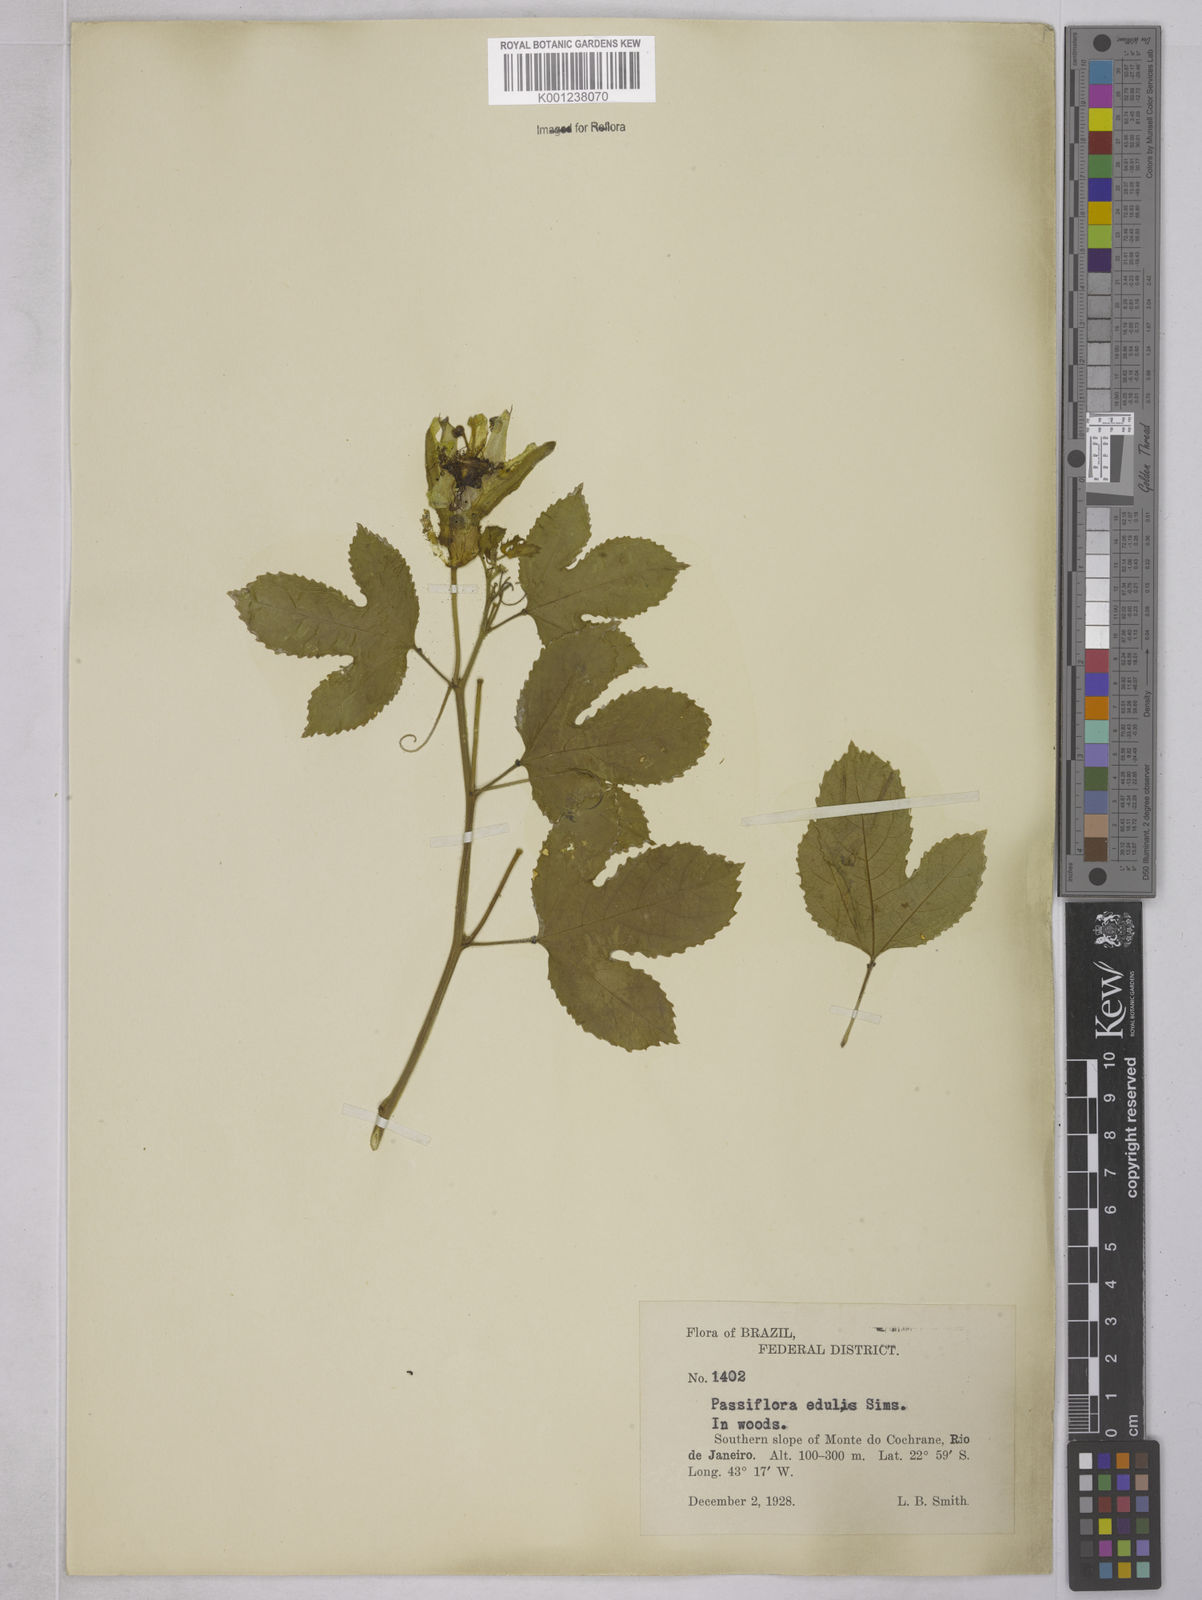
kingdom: Plantae
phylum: Tracheophyta
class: Magnoliopsida
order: Malpighiales
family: Passifloraceae
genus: Passiflora
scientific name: Passiflora edulis
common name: Purple granadilla
